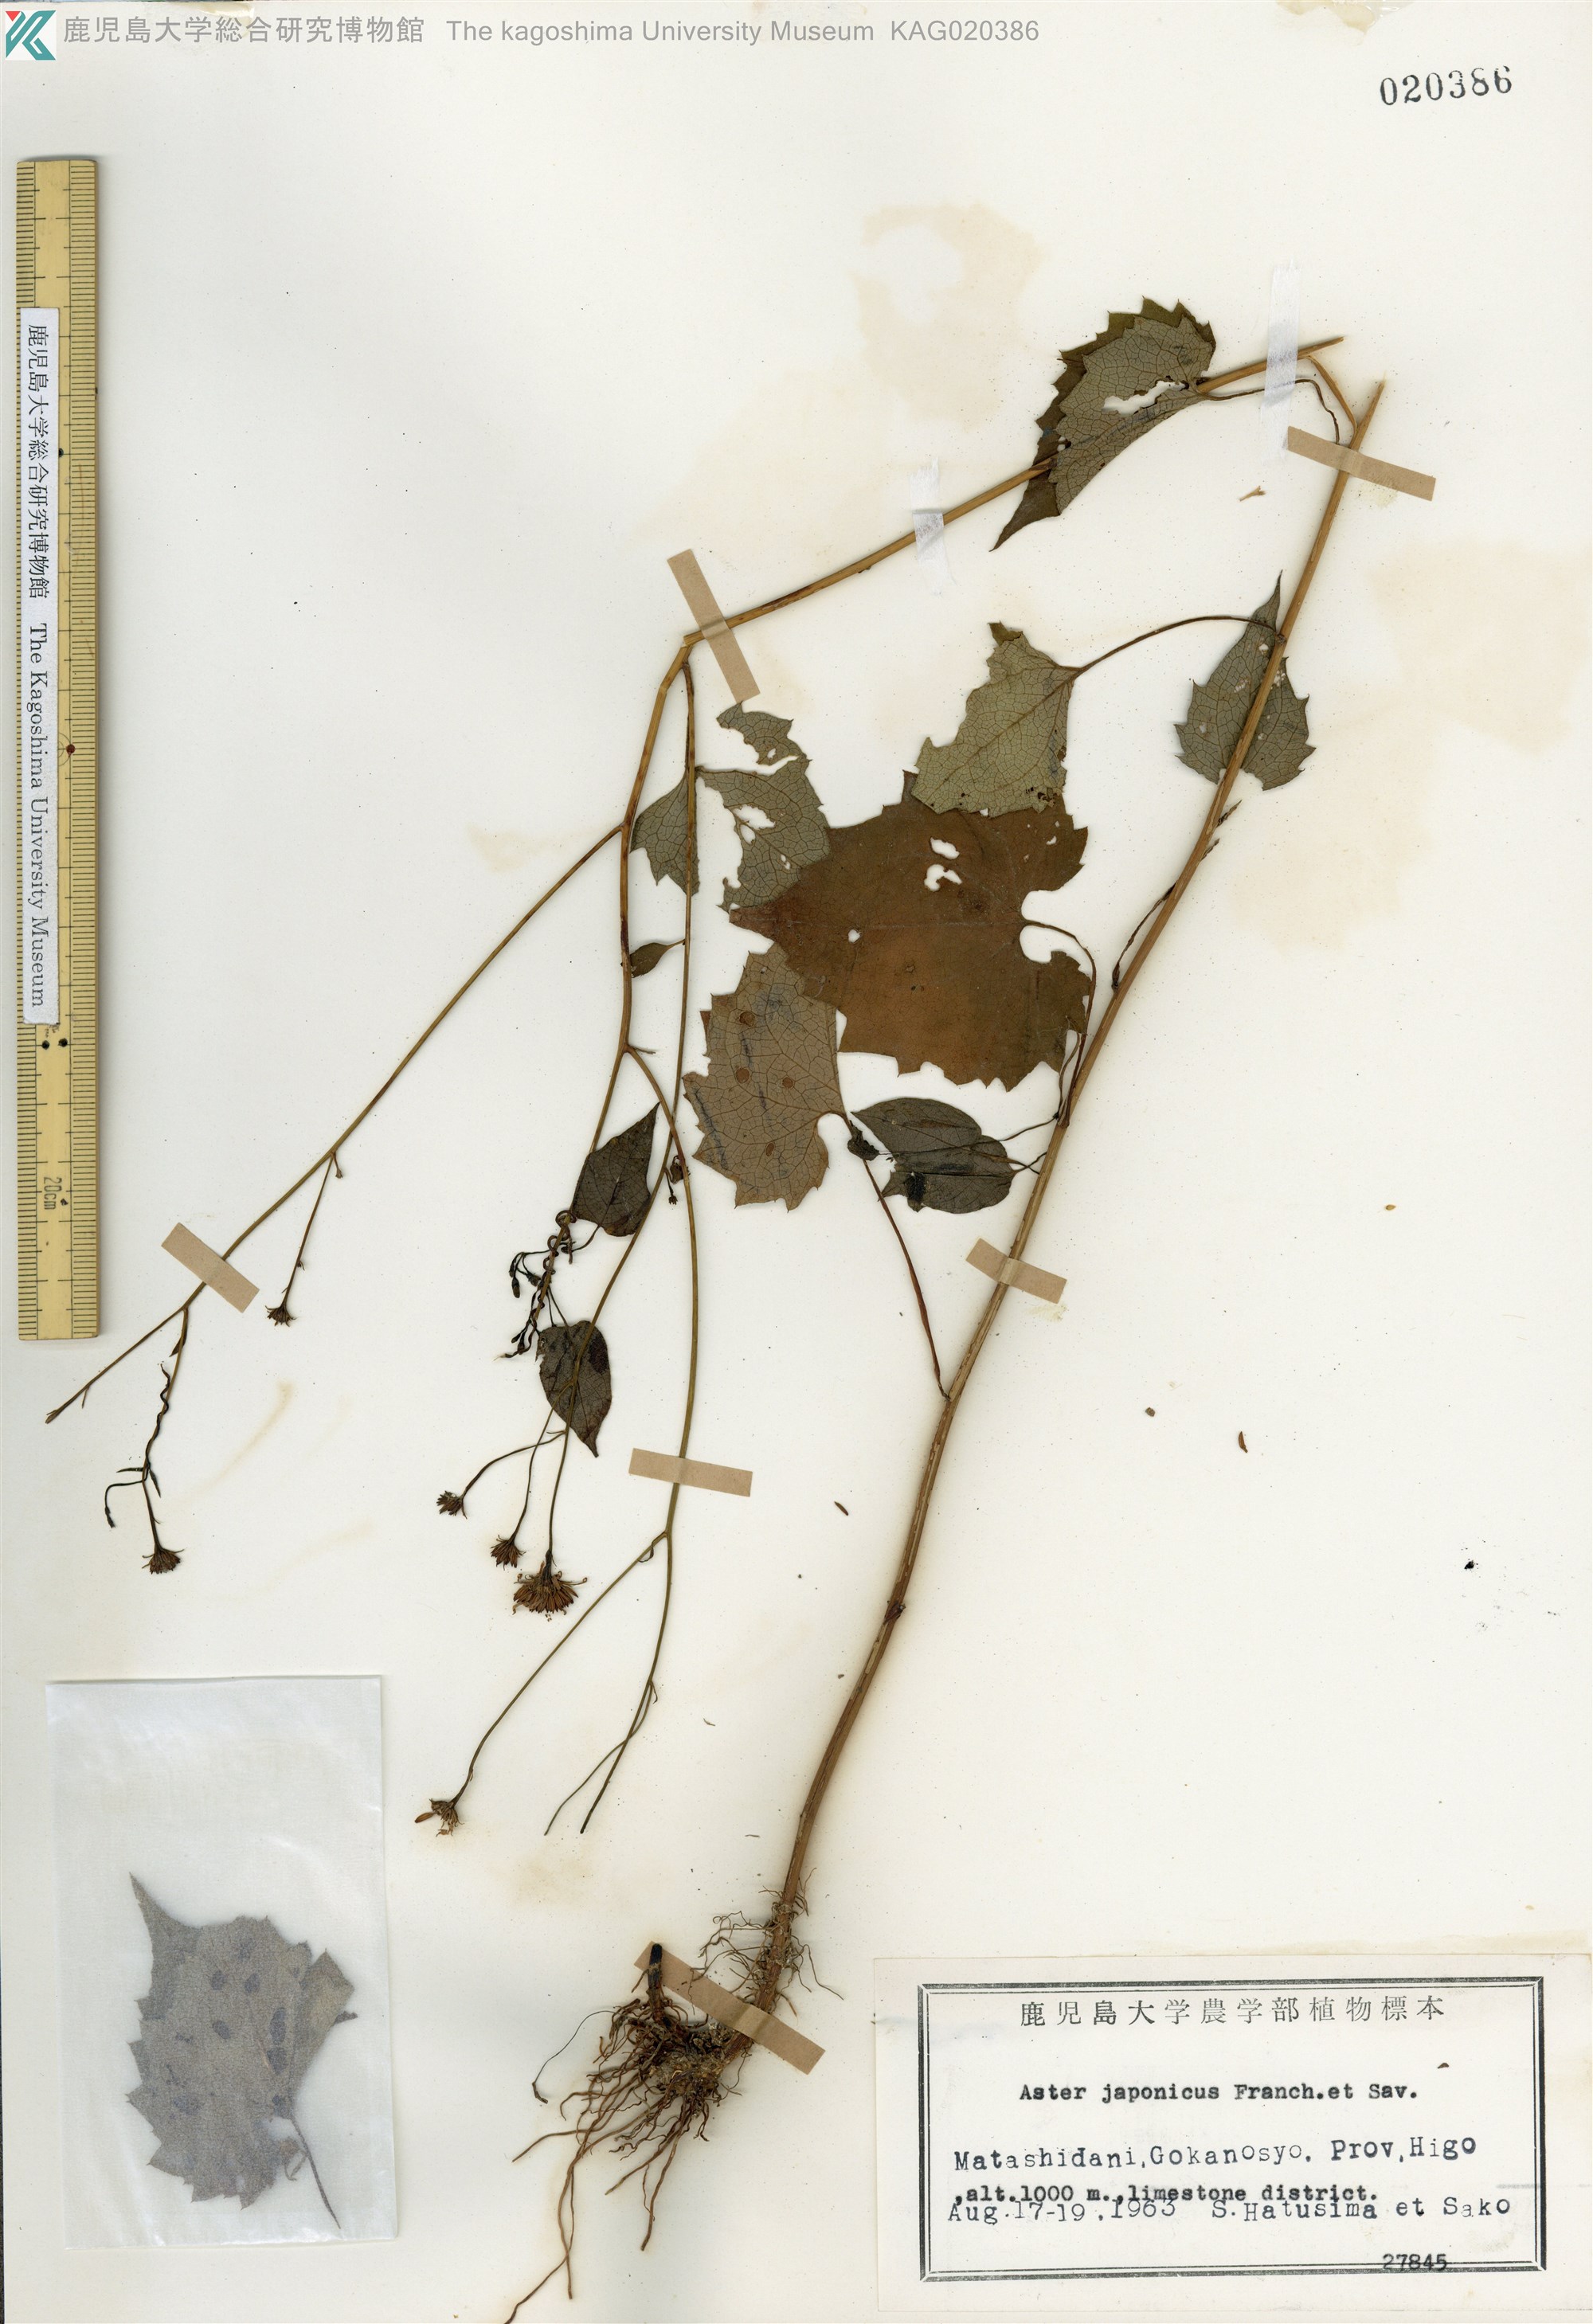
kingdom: Plantae
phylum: Tracheophyta
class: Magnoliopsida
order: Asterales
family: Asteraceae
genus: Cardiagyris
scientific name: Cardiagyris miquelianus
